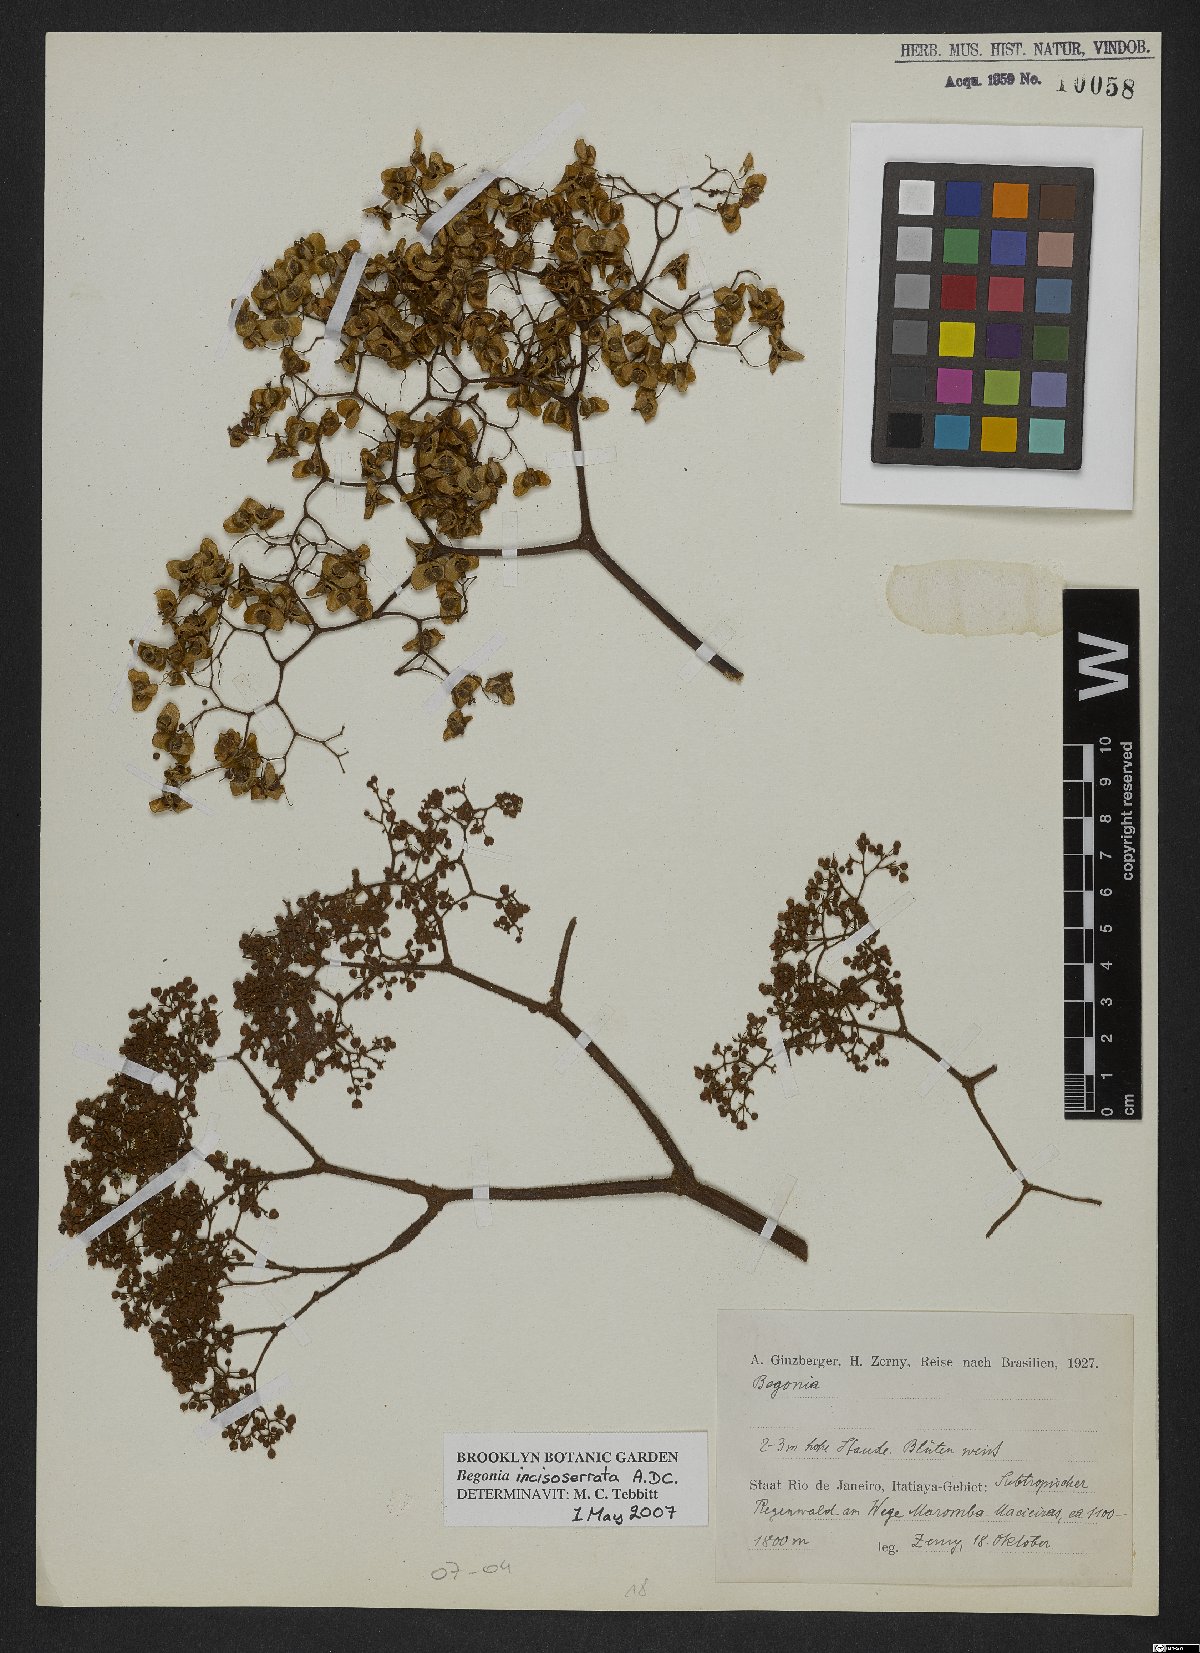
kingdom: Plantae
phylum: Tracheophyta
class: Magnoliopsida
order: Cucurbitales
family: Begoniaceae
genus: Begonia
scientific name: Begonia incisoserrata
